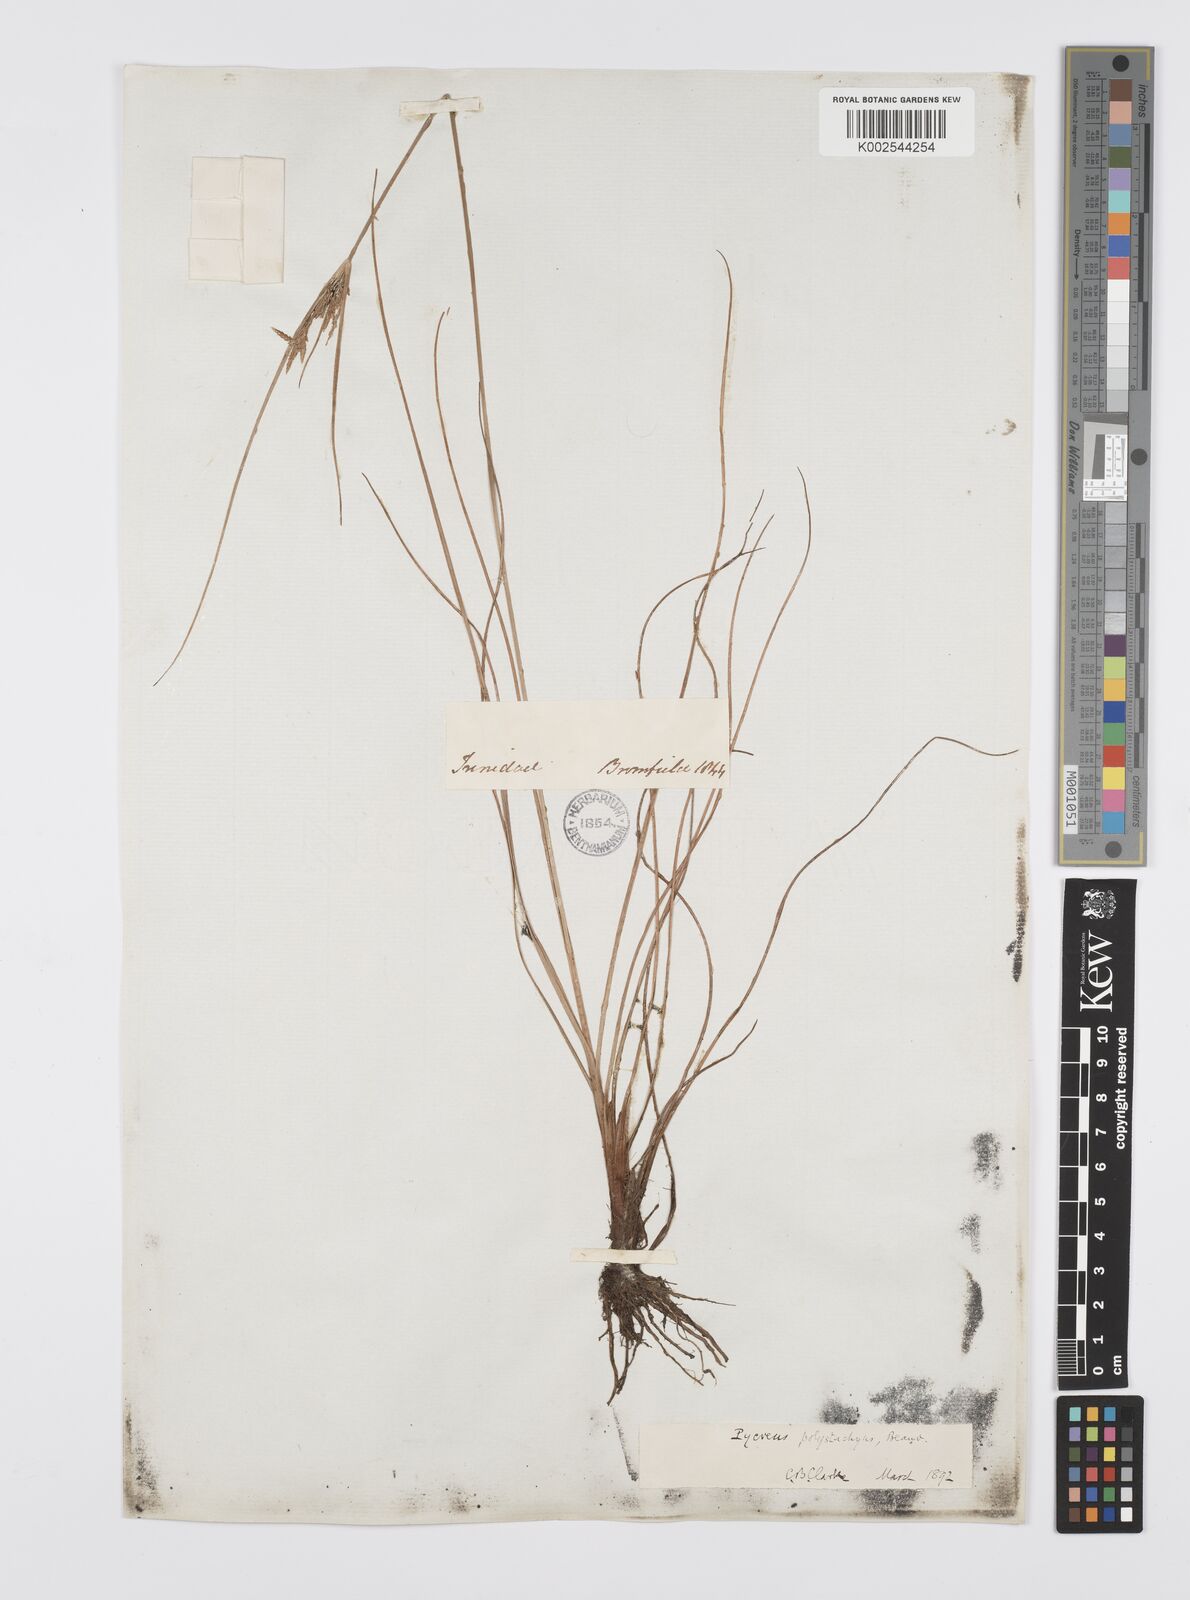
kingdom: Plantae
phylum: Tracheophyta
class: Liliopsida
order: Poales
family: Cyperaceae
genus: Cyperus
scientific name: Cyperus polystachyos
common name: Bunchy flat sedge
